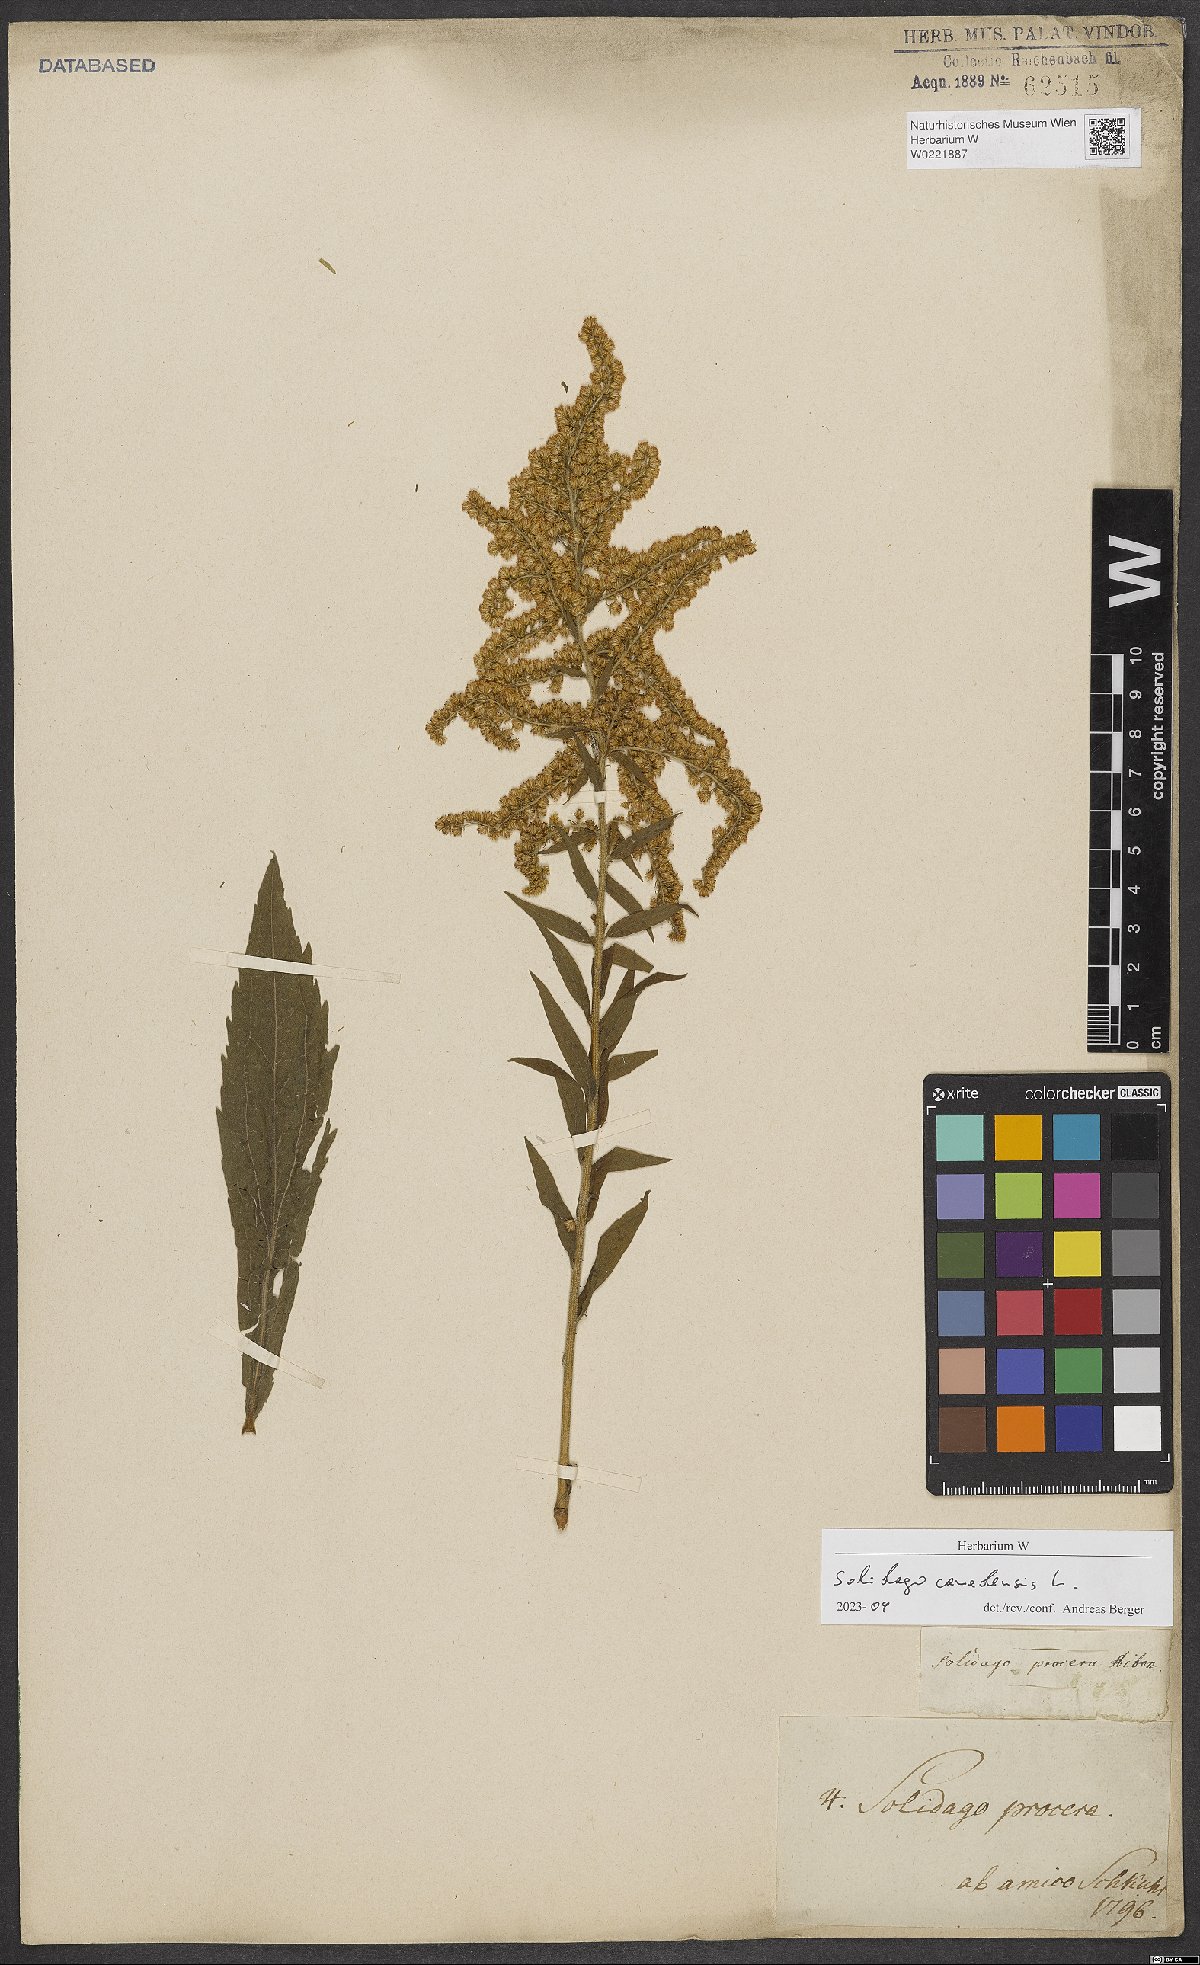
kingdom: Plantae
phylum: Tracheophyta
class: Magnoliopsida
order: Asterales
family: Asteraceae
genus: Solidago
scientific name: Solidago canadensis
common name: Canada goldenrod
